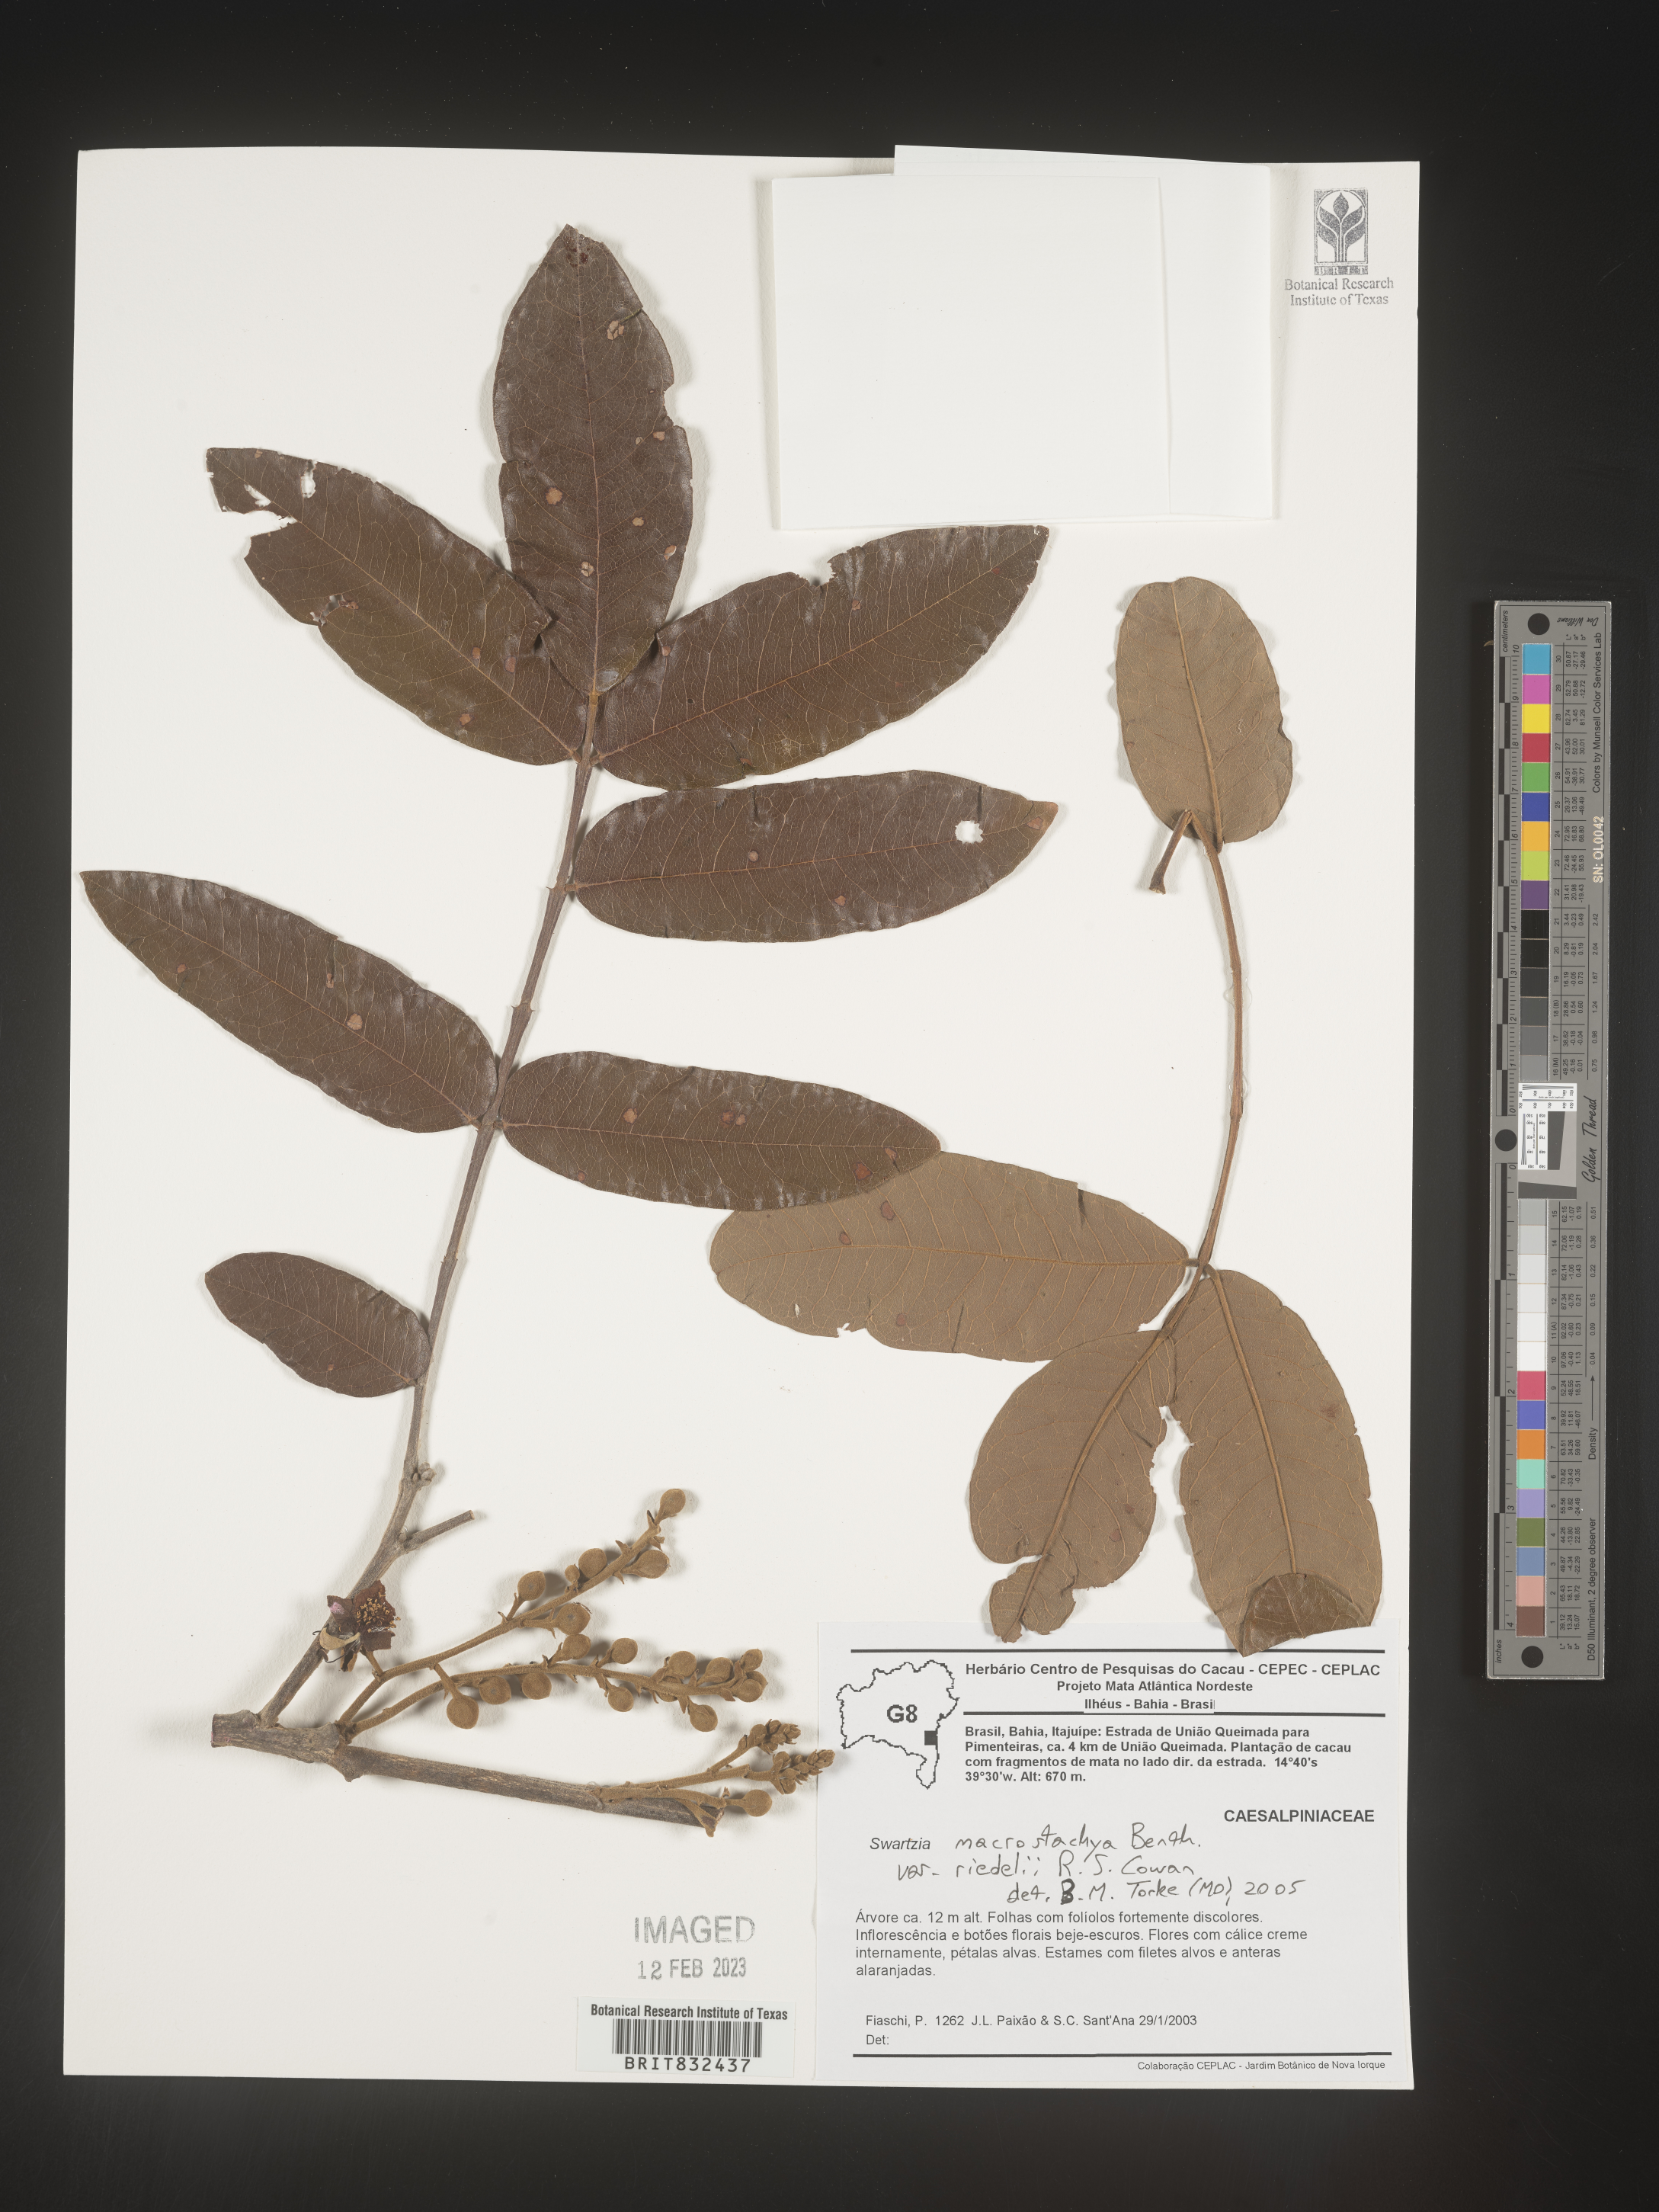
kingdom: Plantae
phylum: Tracheophyta
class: Magnoliopsida
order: Fabales
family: Fabaceae
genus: Swartzia
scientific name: Swartzia
